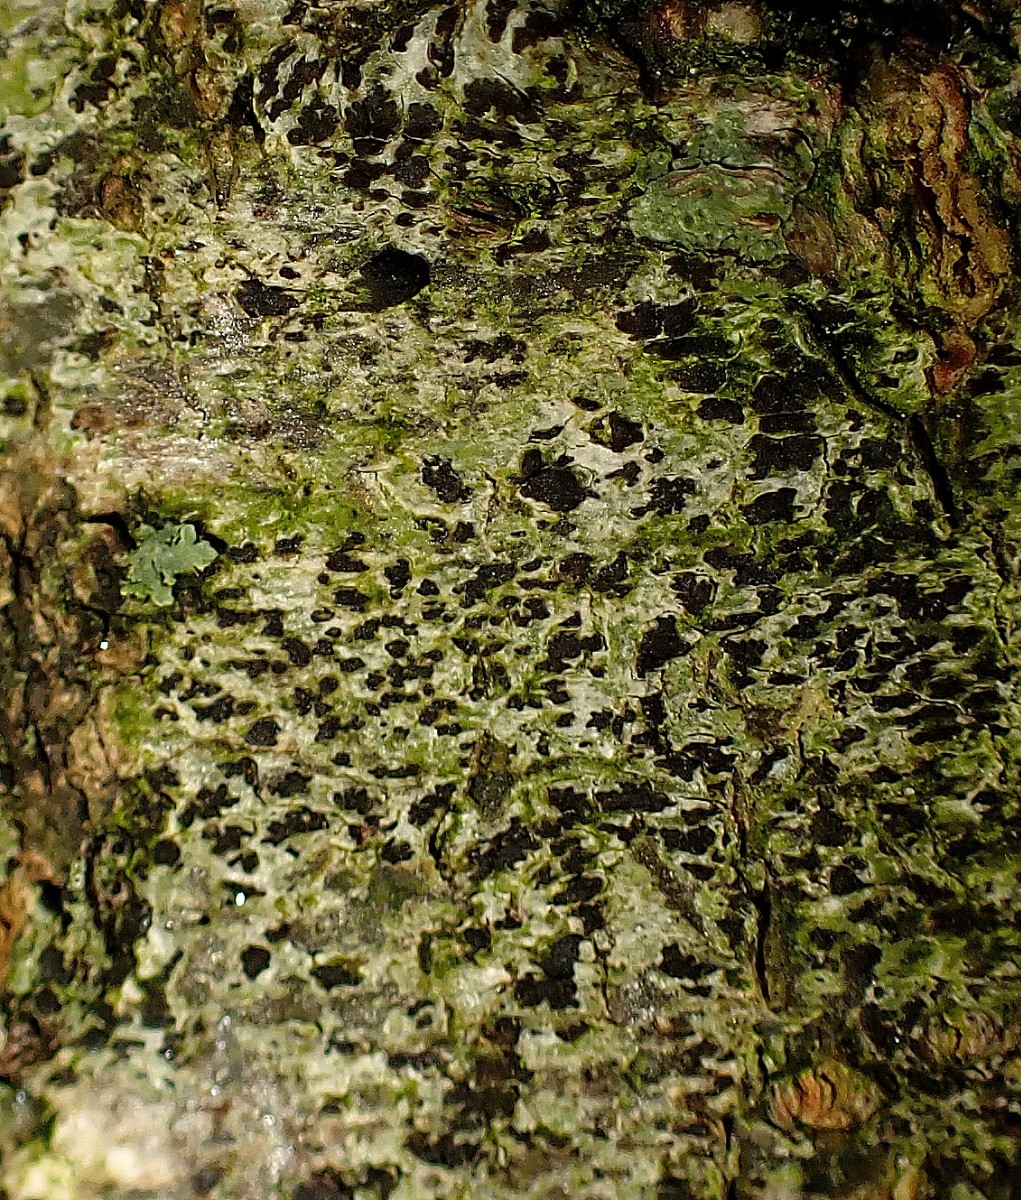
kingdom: Fungi
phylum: Ascomycota
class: Arthoniomycetes
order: Arthoniales
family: Arthoniaceae
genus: Arthonia
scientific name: Arthonia radiata
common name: stjerne-pletlav
